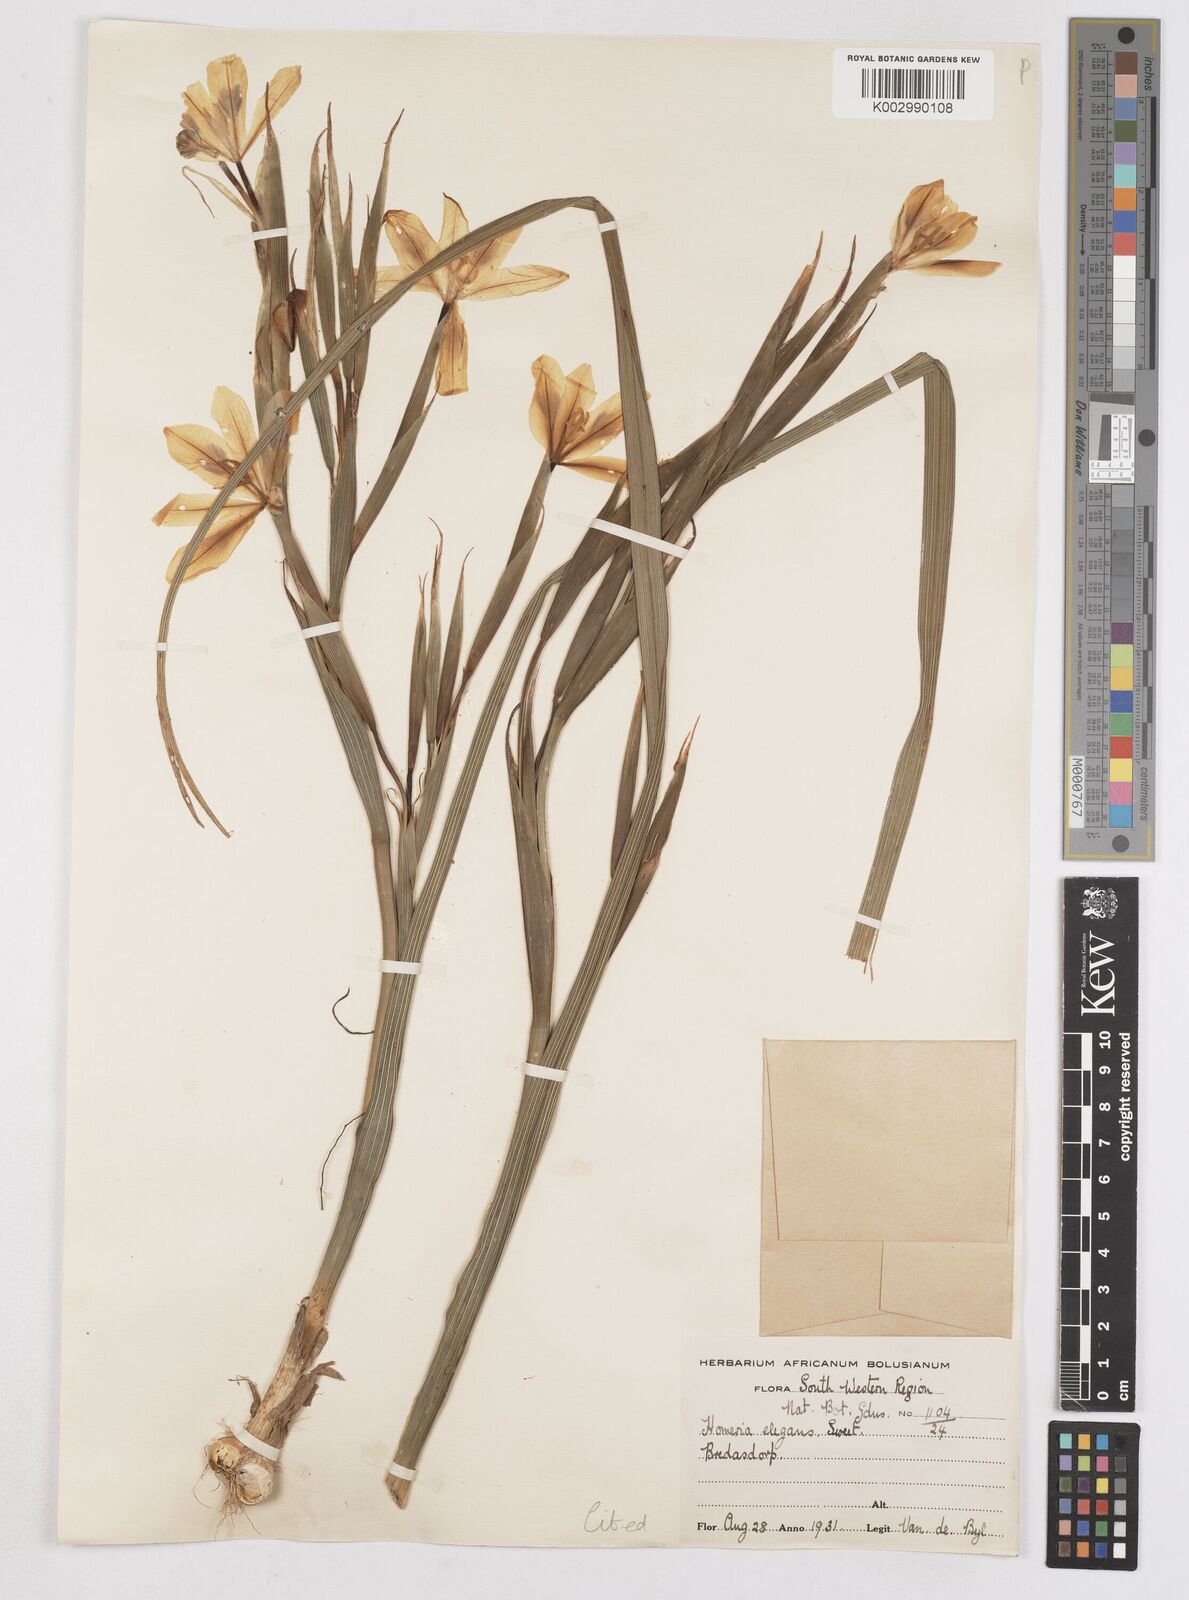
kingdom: Plantae
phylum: Tracheophyta
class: Liliopsida
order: Asparagales
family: Iridaceae
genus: Moraea
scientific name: Moraea elegans
